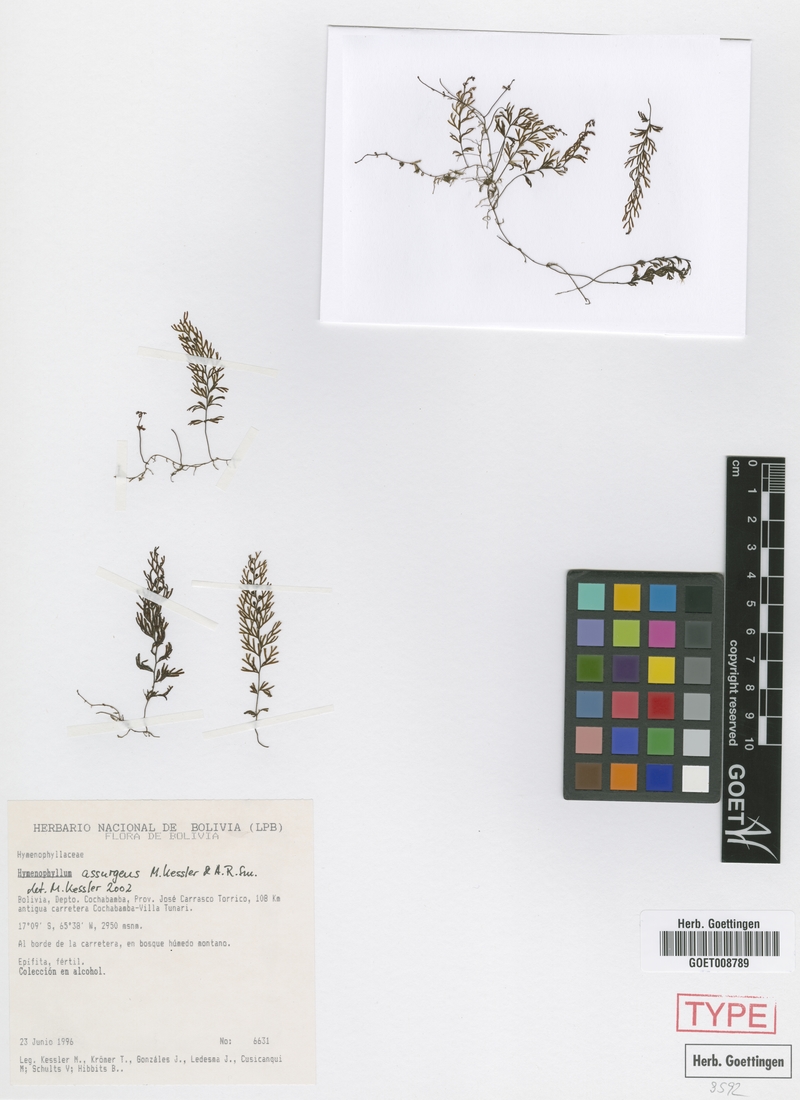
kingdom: Plantae
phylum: Tracheophyta
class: Polypodiopsida
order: Hymenophyllales
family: Hymenophyllaceae
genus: Hymenophyllum
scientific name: Hymenophyllum assurgens
